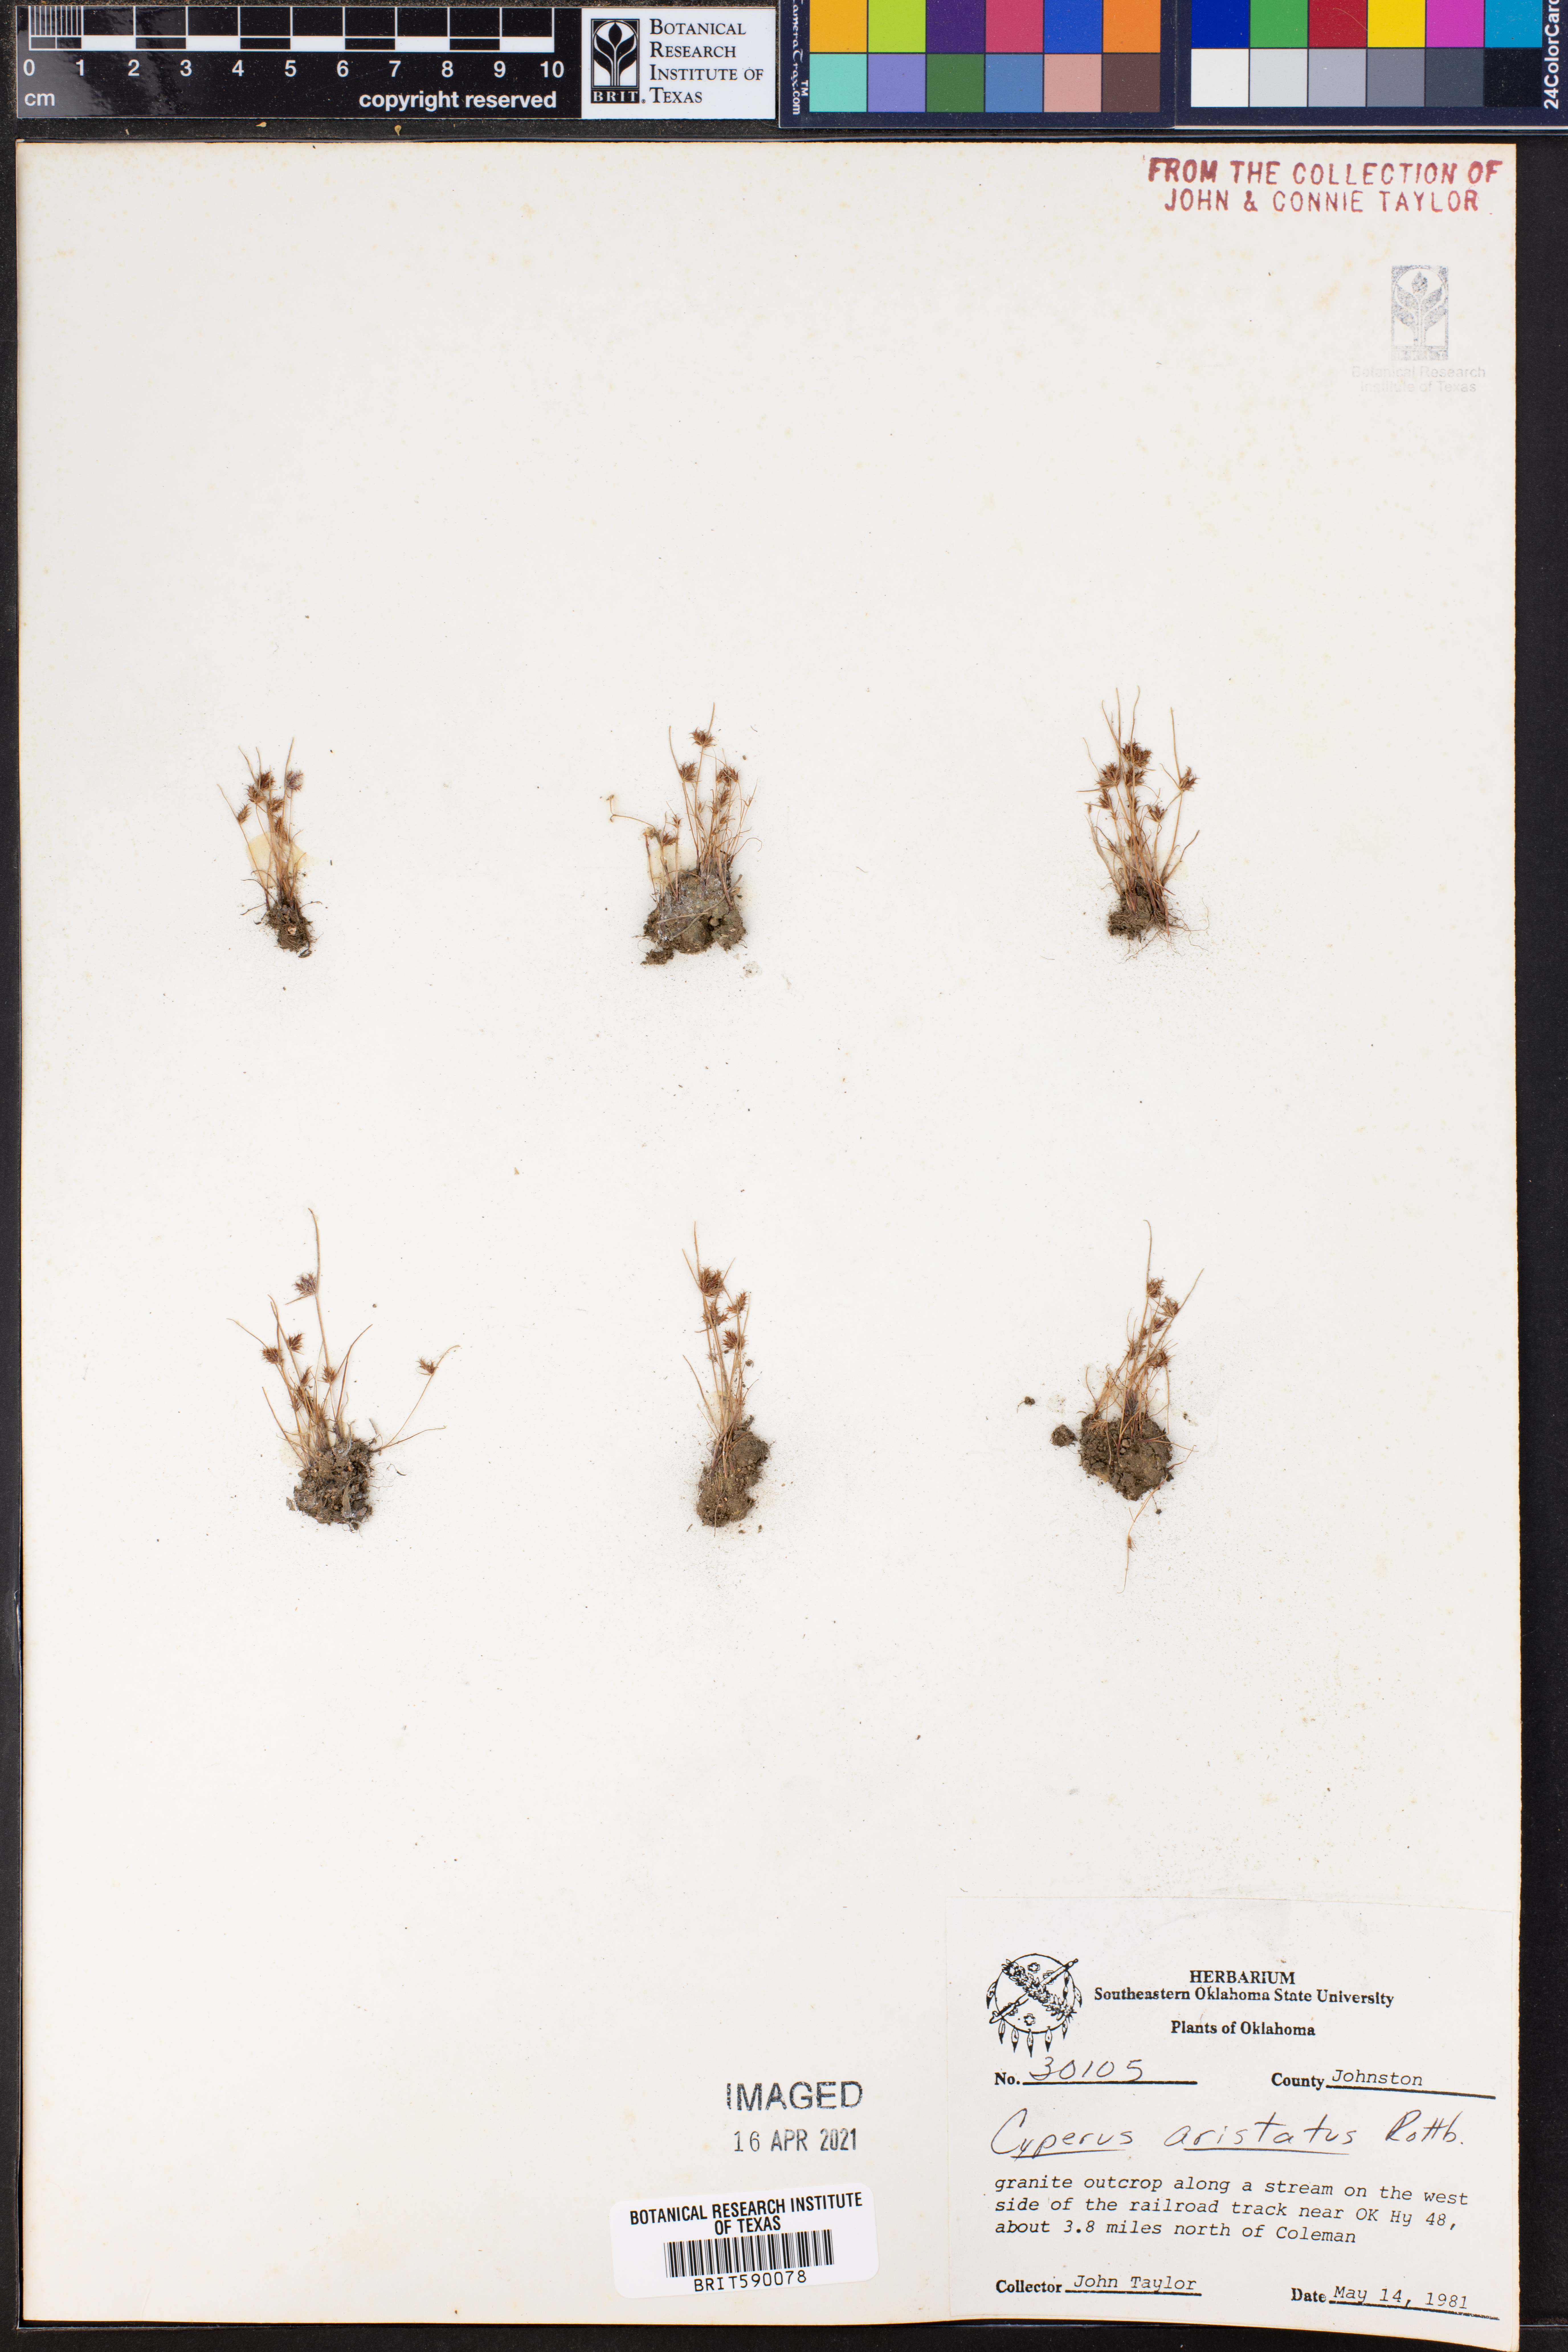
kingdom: Plantae
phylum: Tracheophyta
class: Liliopsida
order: Poales
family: Cyperaceae
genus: Cyperus
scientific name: Cyperus squarrosus
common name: Awned cyperus
